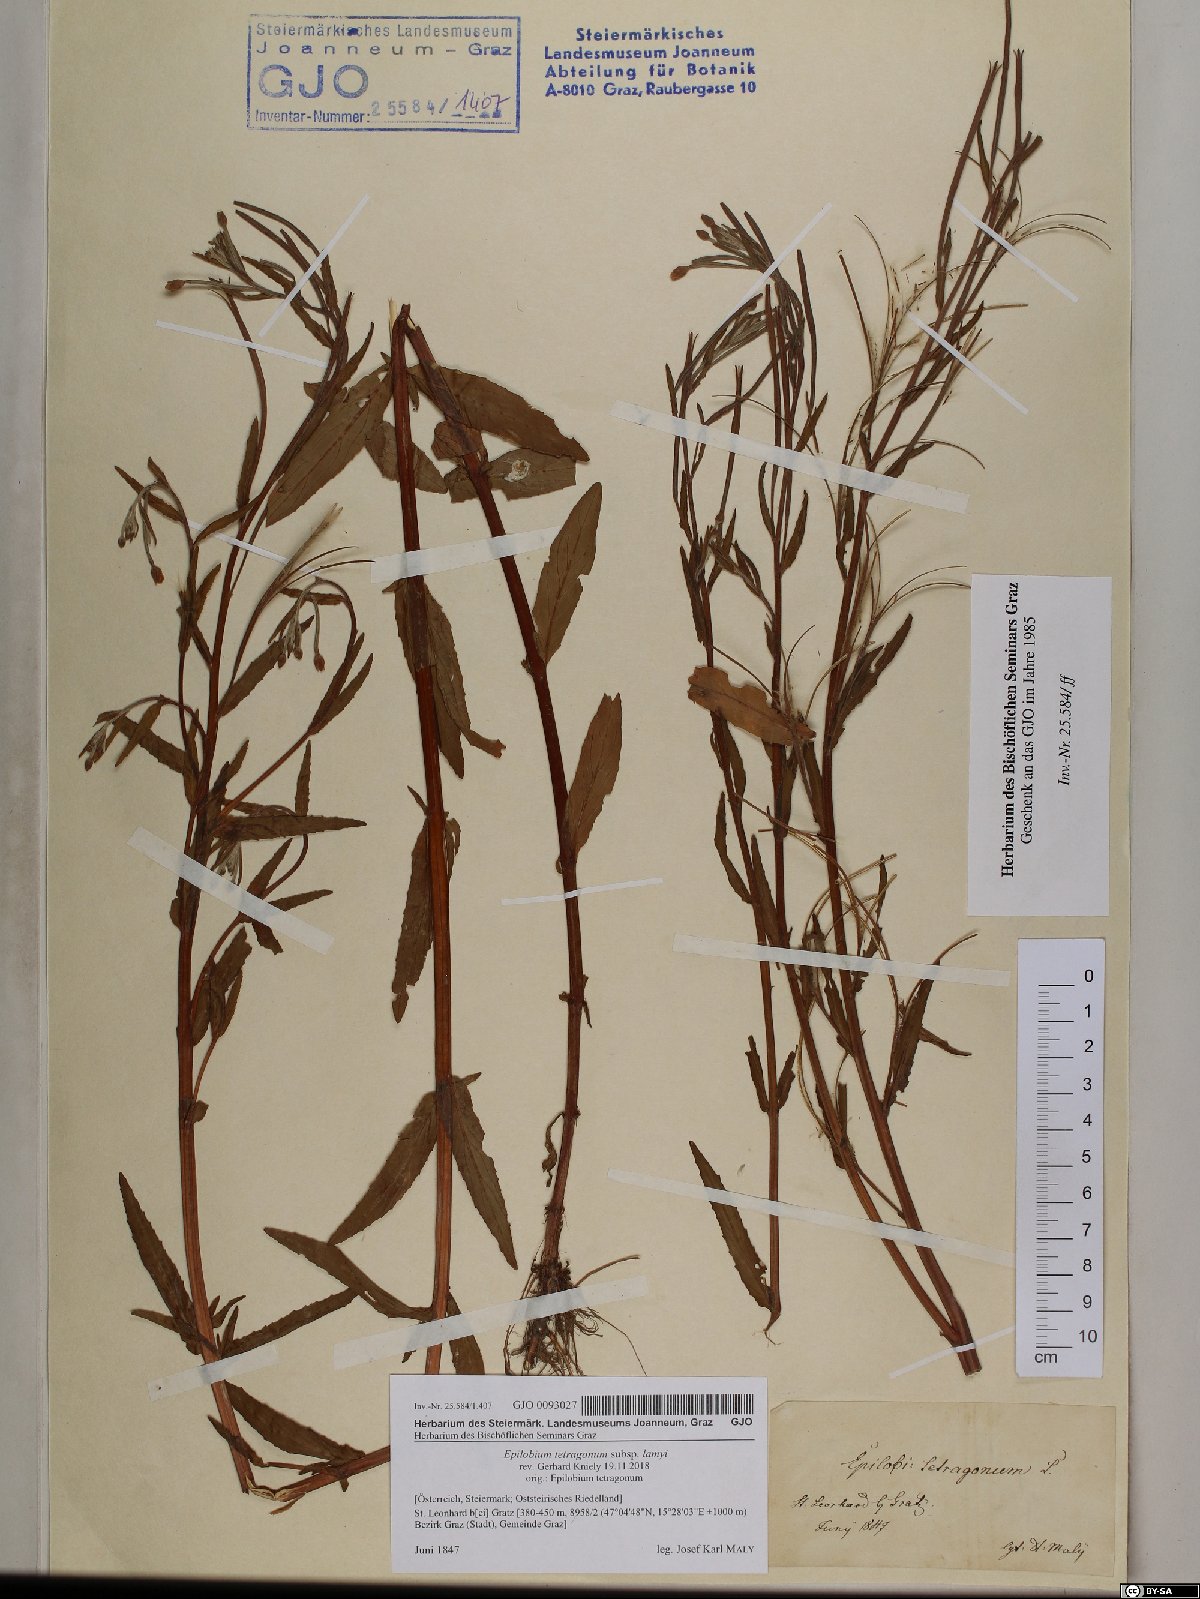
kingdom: Plantae
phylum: Tracheophyta
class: Magnoliopsida
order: Myrtales
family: Onagraceae
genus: Epilobium
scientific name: Epilobium lamyi
